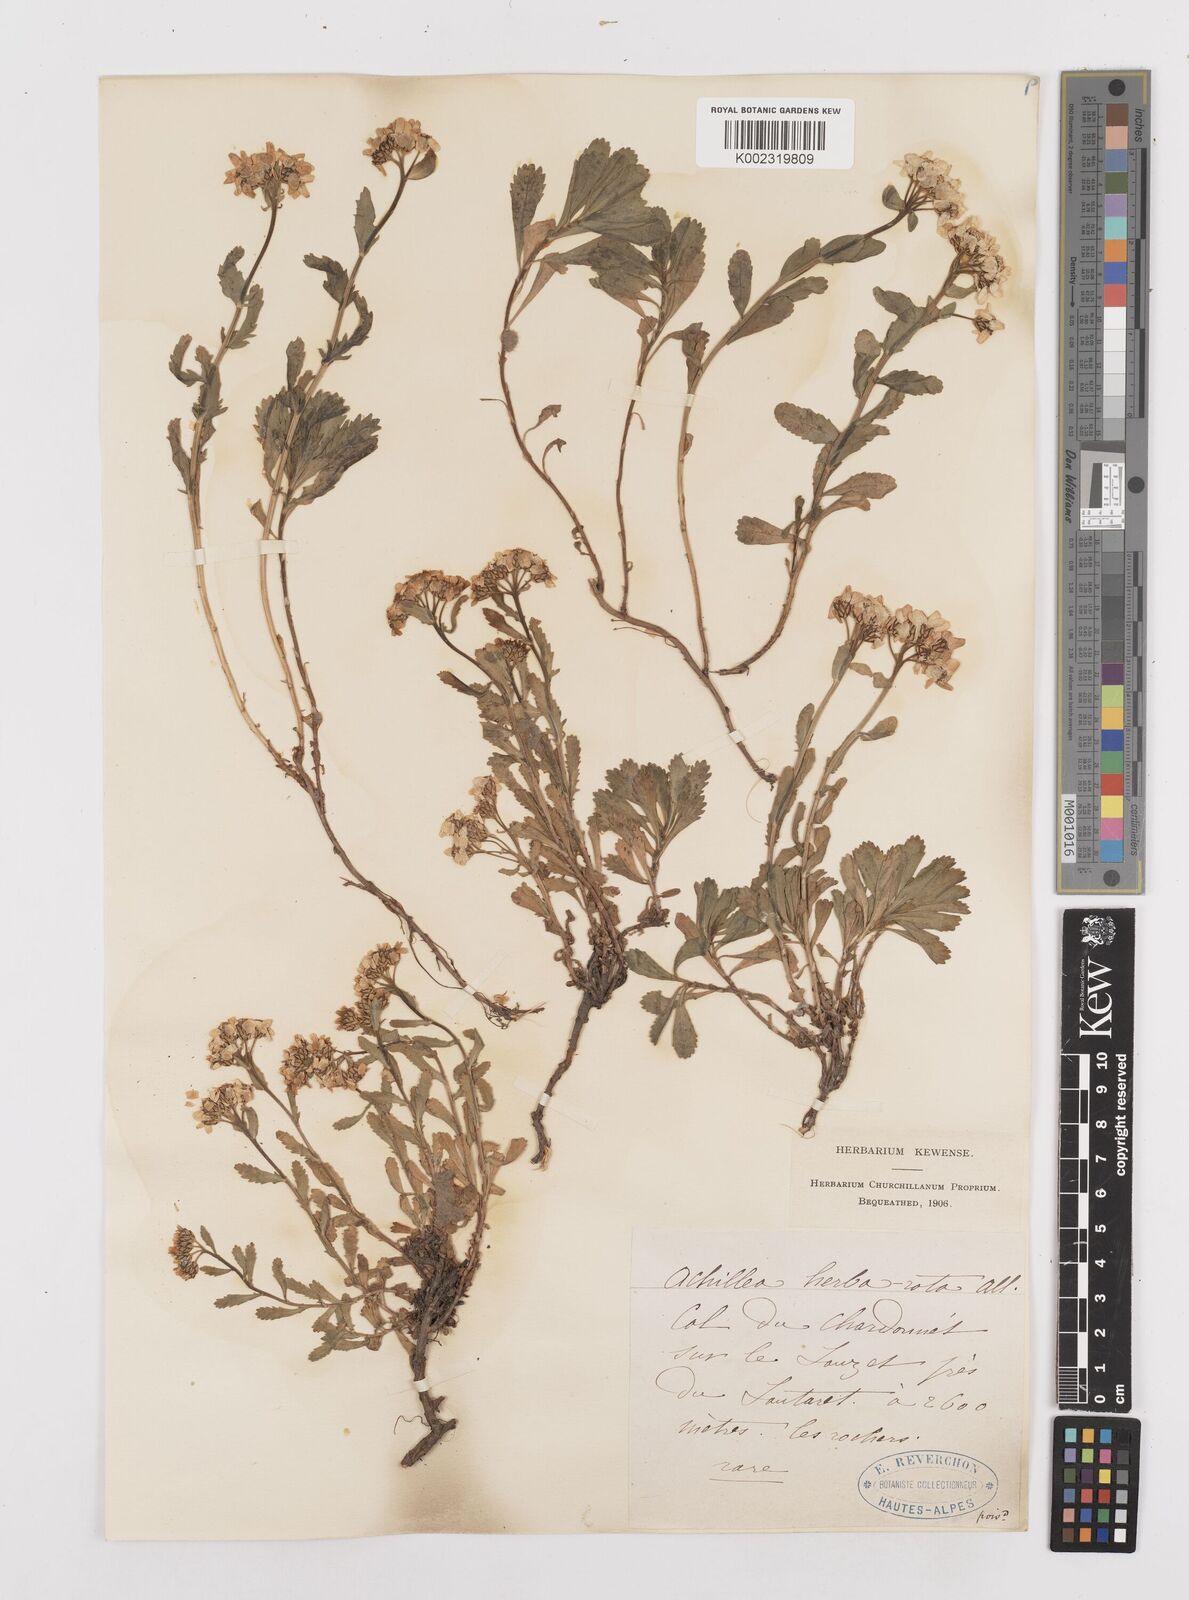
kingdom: Plantae
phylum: Tracheophyta
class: Magnoliopsida
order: Asterales
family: Asteraceae
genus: Achillea
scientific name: Achillea erba-rotta
